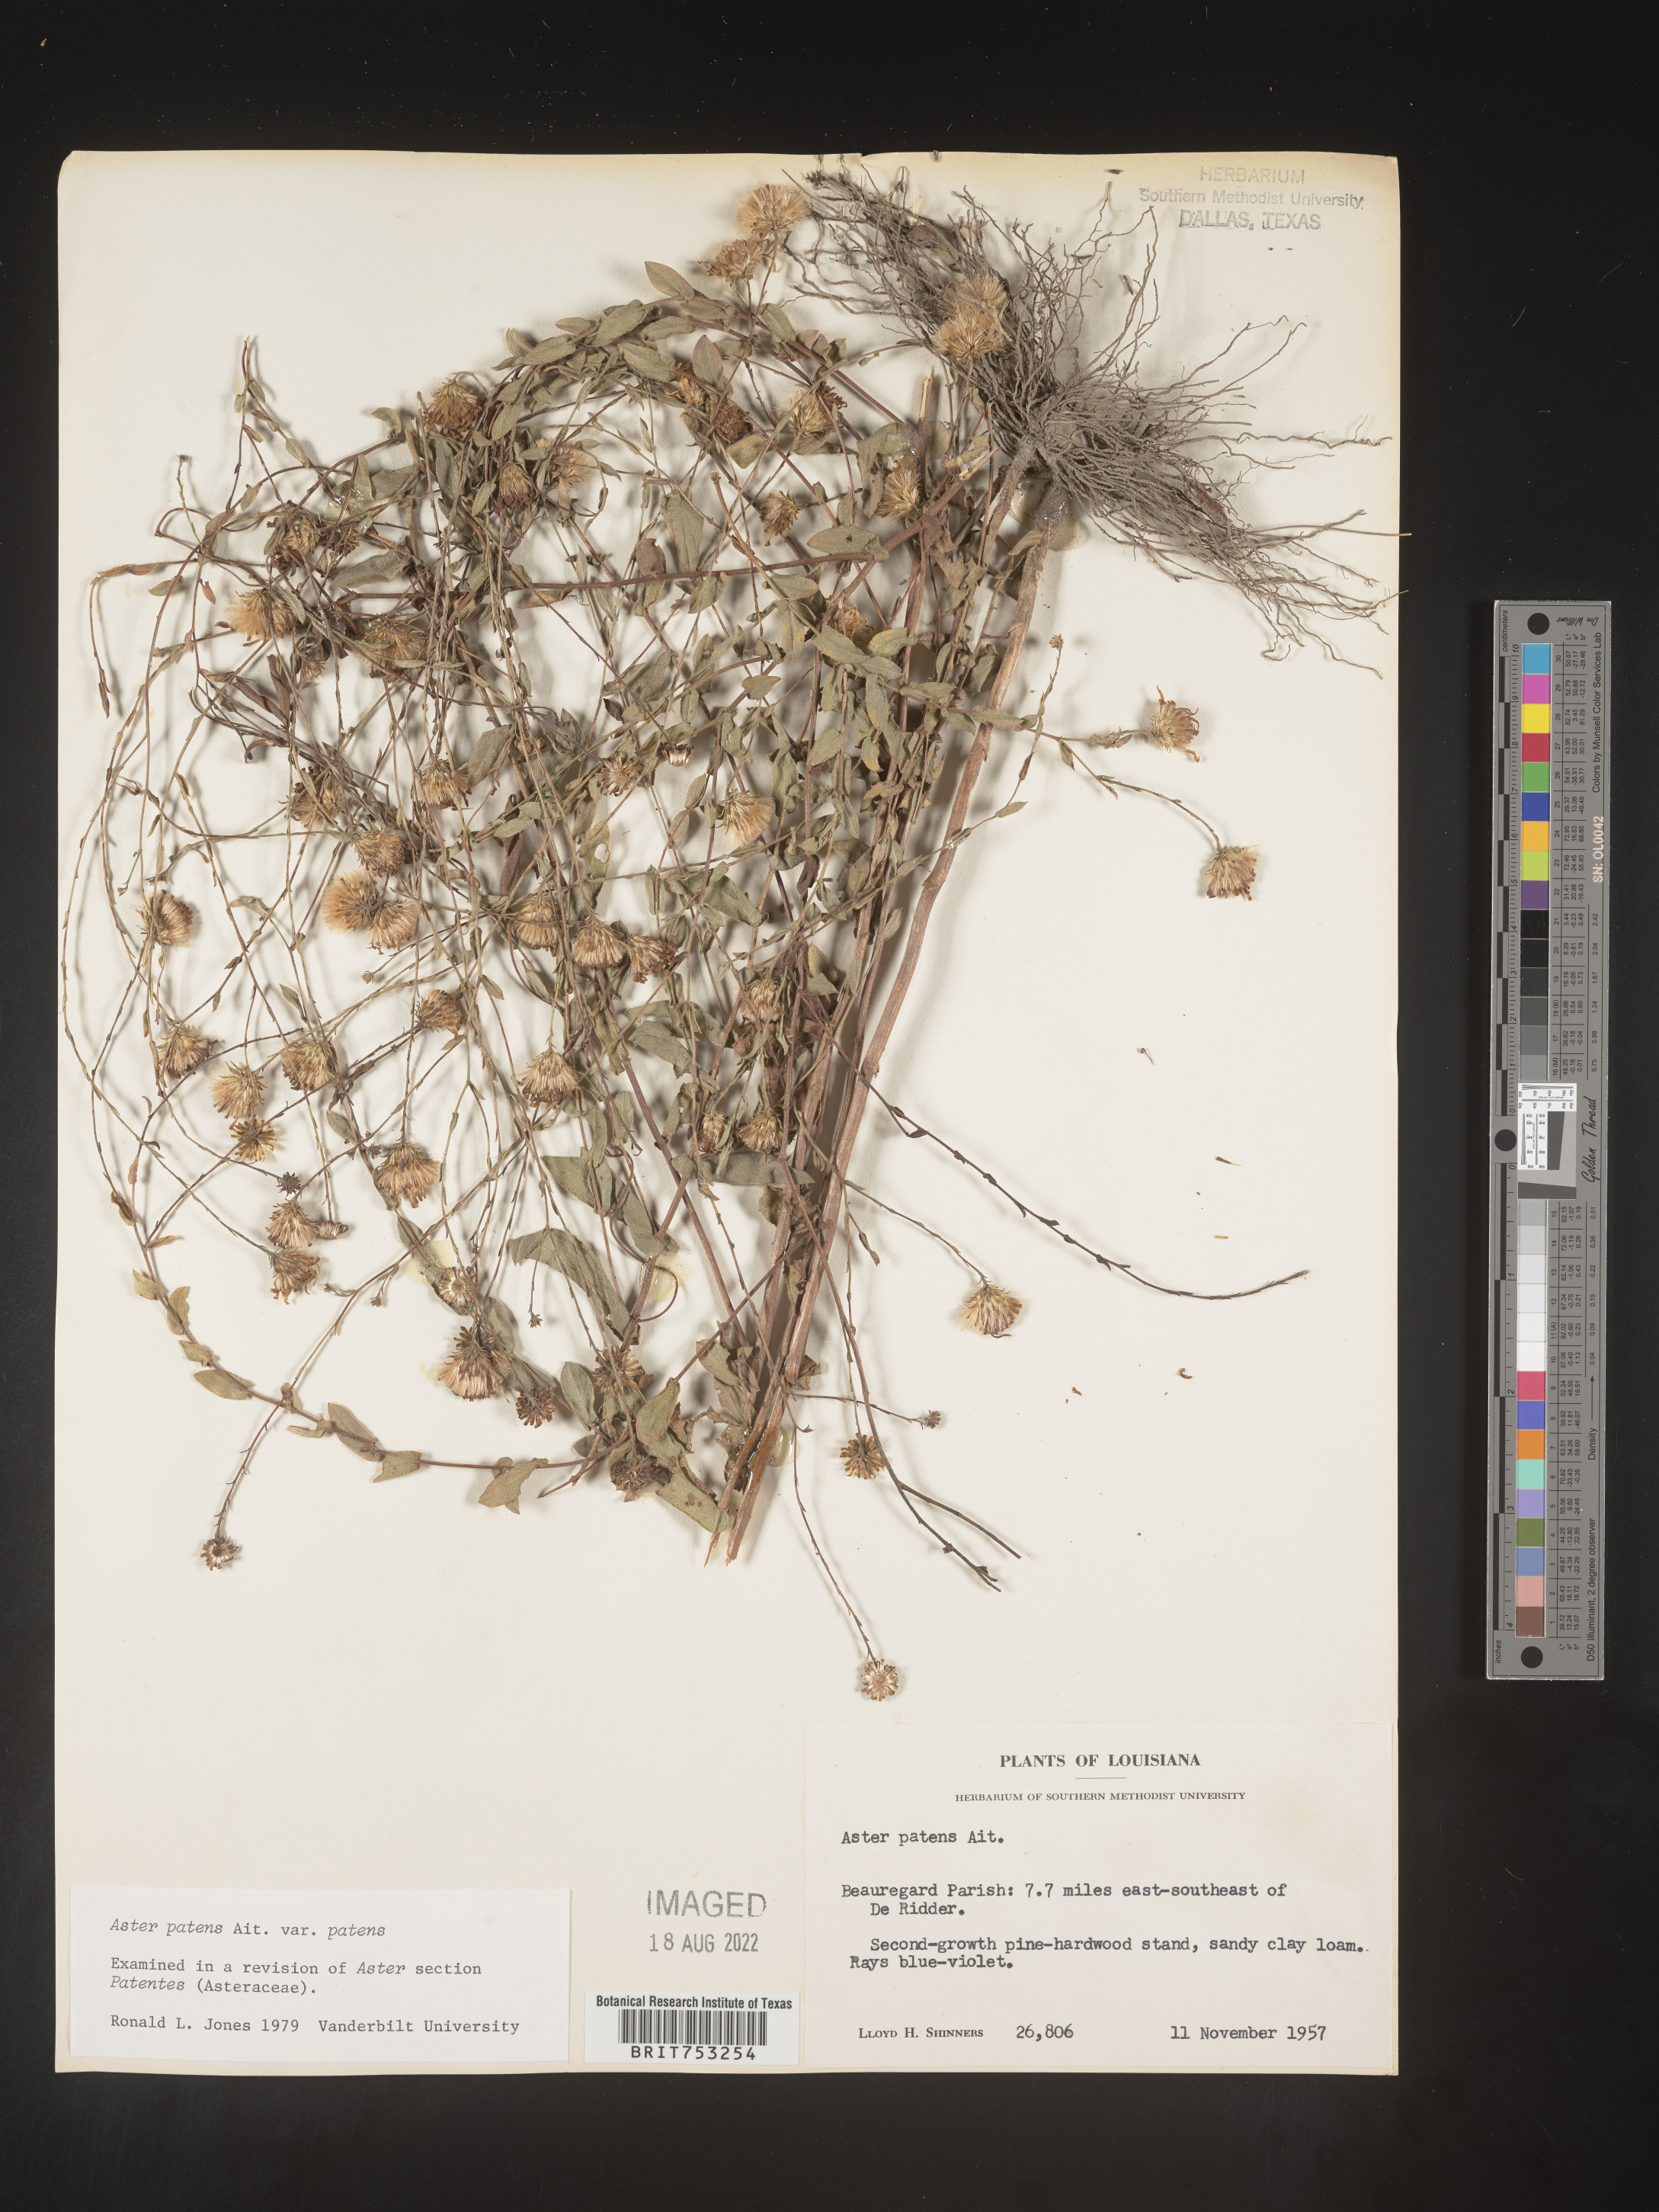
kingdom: Plantae
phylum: Tracheophyta
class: Magnoliopsida
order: Asterales
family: Asteraceae
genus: Symphyotrichum
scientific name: Symphyotrichum patens
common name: Late purple aster
